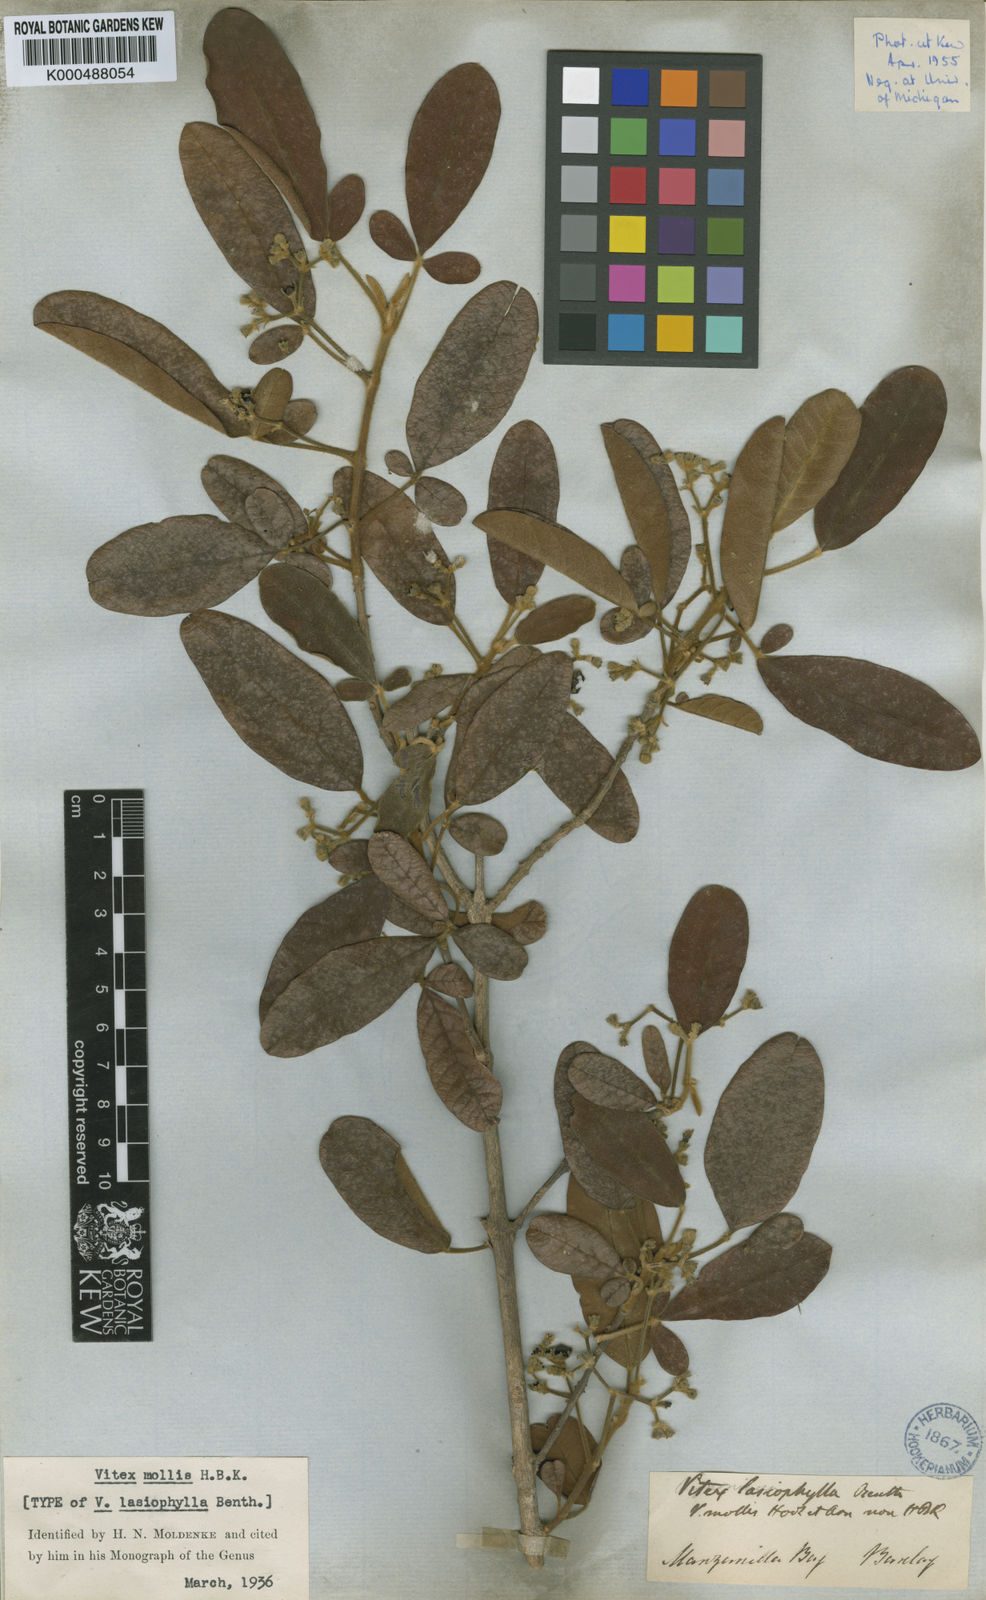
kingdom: Plantae
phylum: Tracheophyta
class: Magnoliopsida
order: Lamiales
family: Lamiaceae
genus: Vitex
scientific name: Vitex mollis
